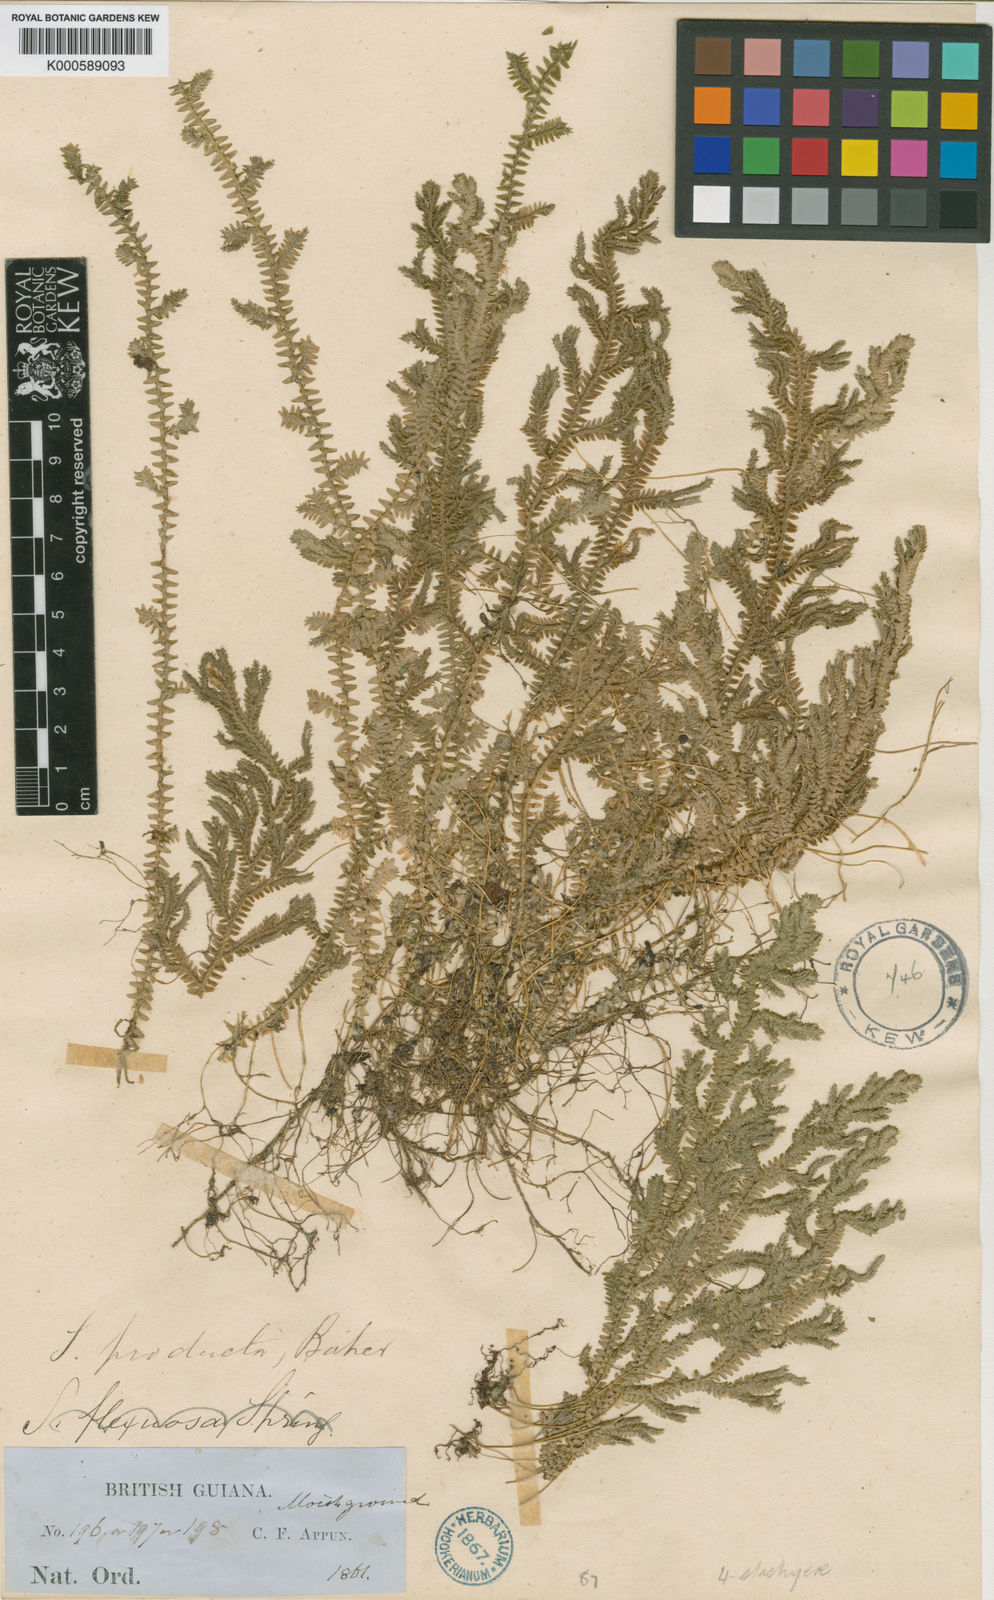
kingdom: Plantae
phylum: Tracheophyta
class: Lycopodiopsida
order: Selaginellales
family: Selaginellaceae
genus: Selaginella
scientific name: Selaginella revoluta
